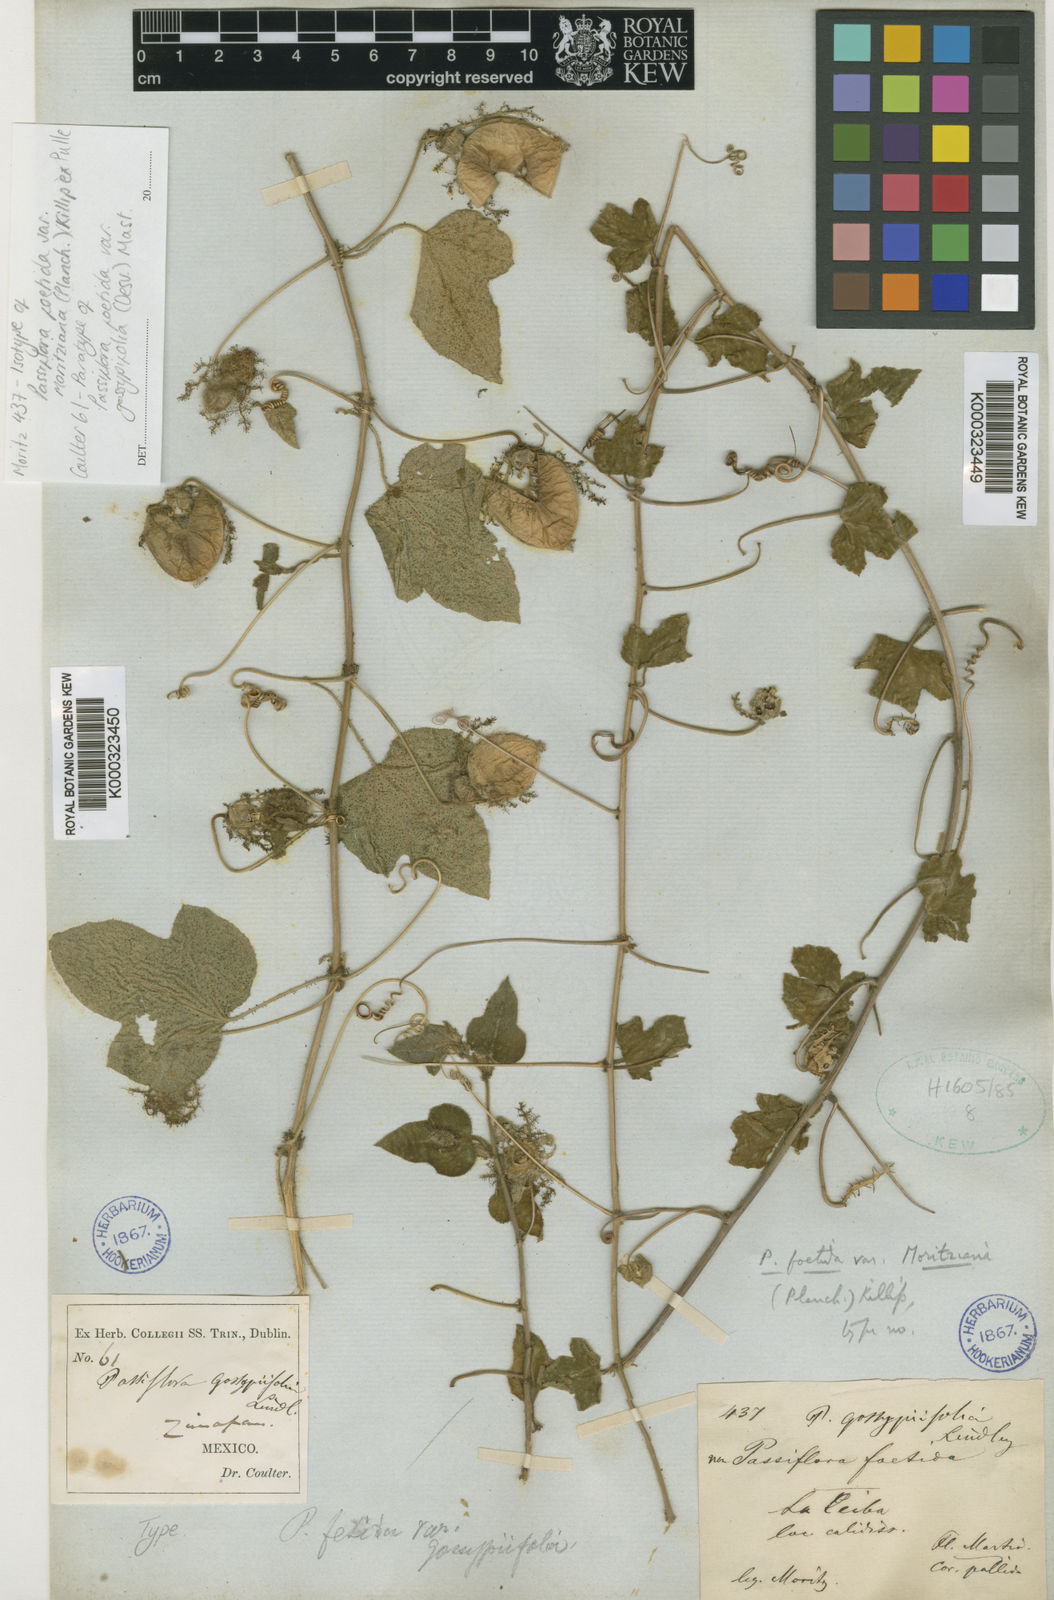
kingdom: Plantae
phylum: Tracheophyta
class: Magnoliopsida
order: Malpighiales
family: Passifloraceae
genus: Passiflora
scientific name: Passiflora foetida
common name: Fetid passionflower
